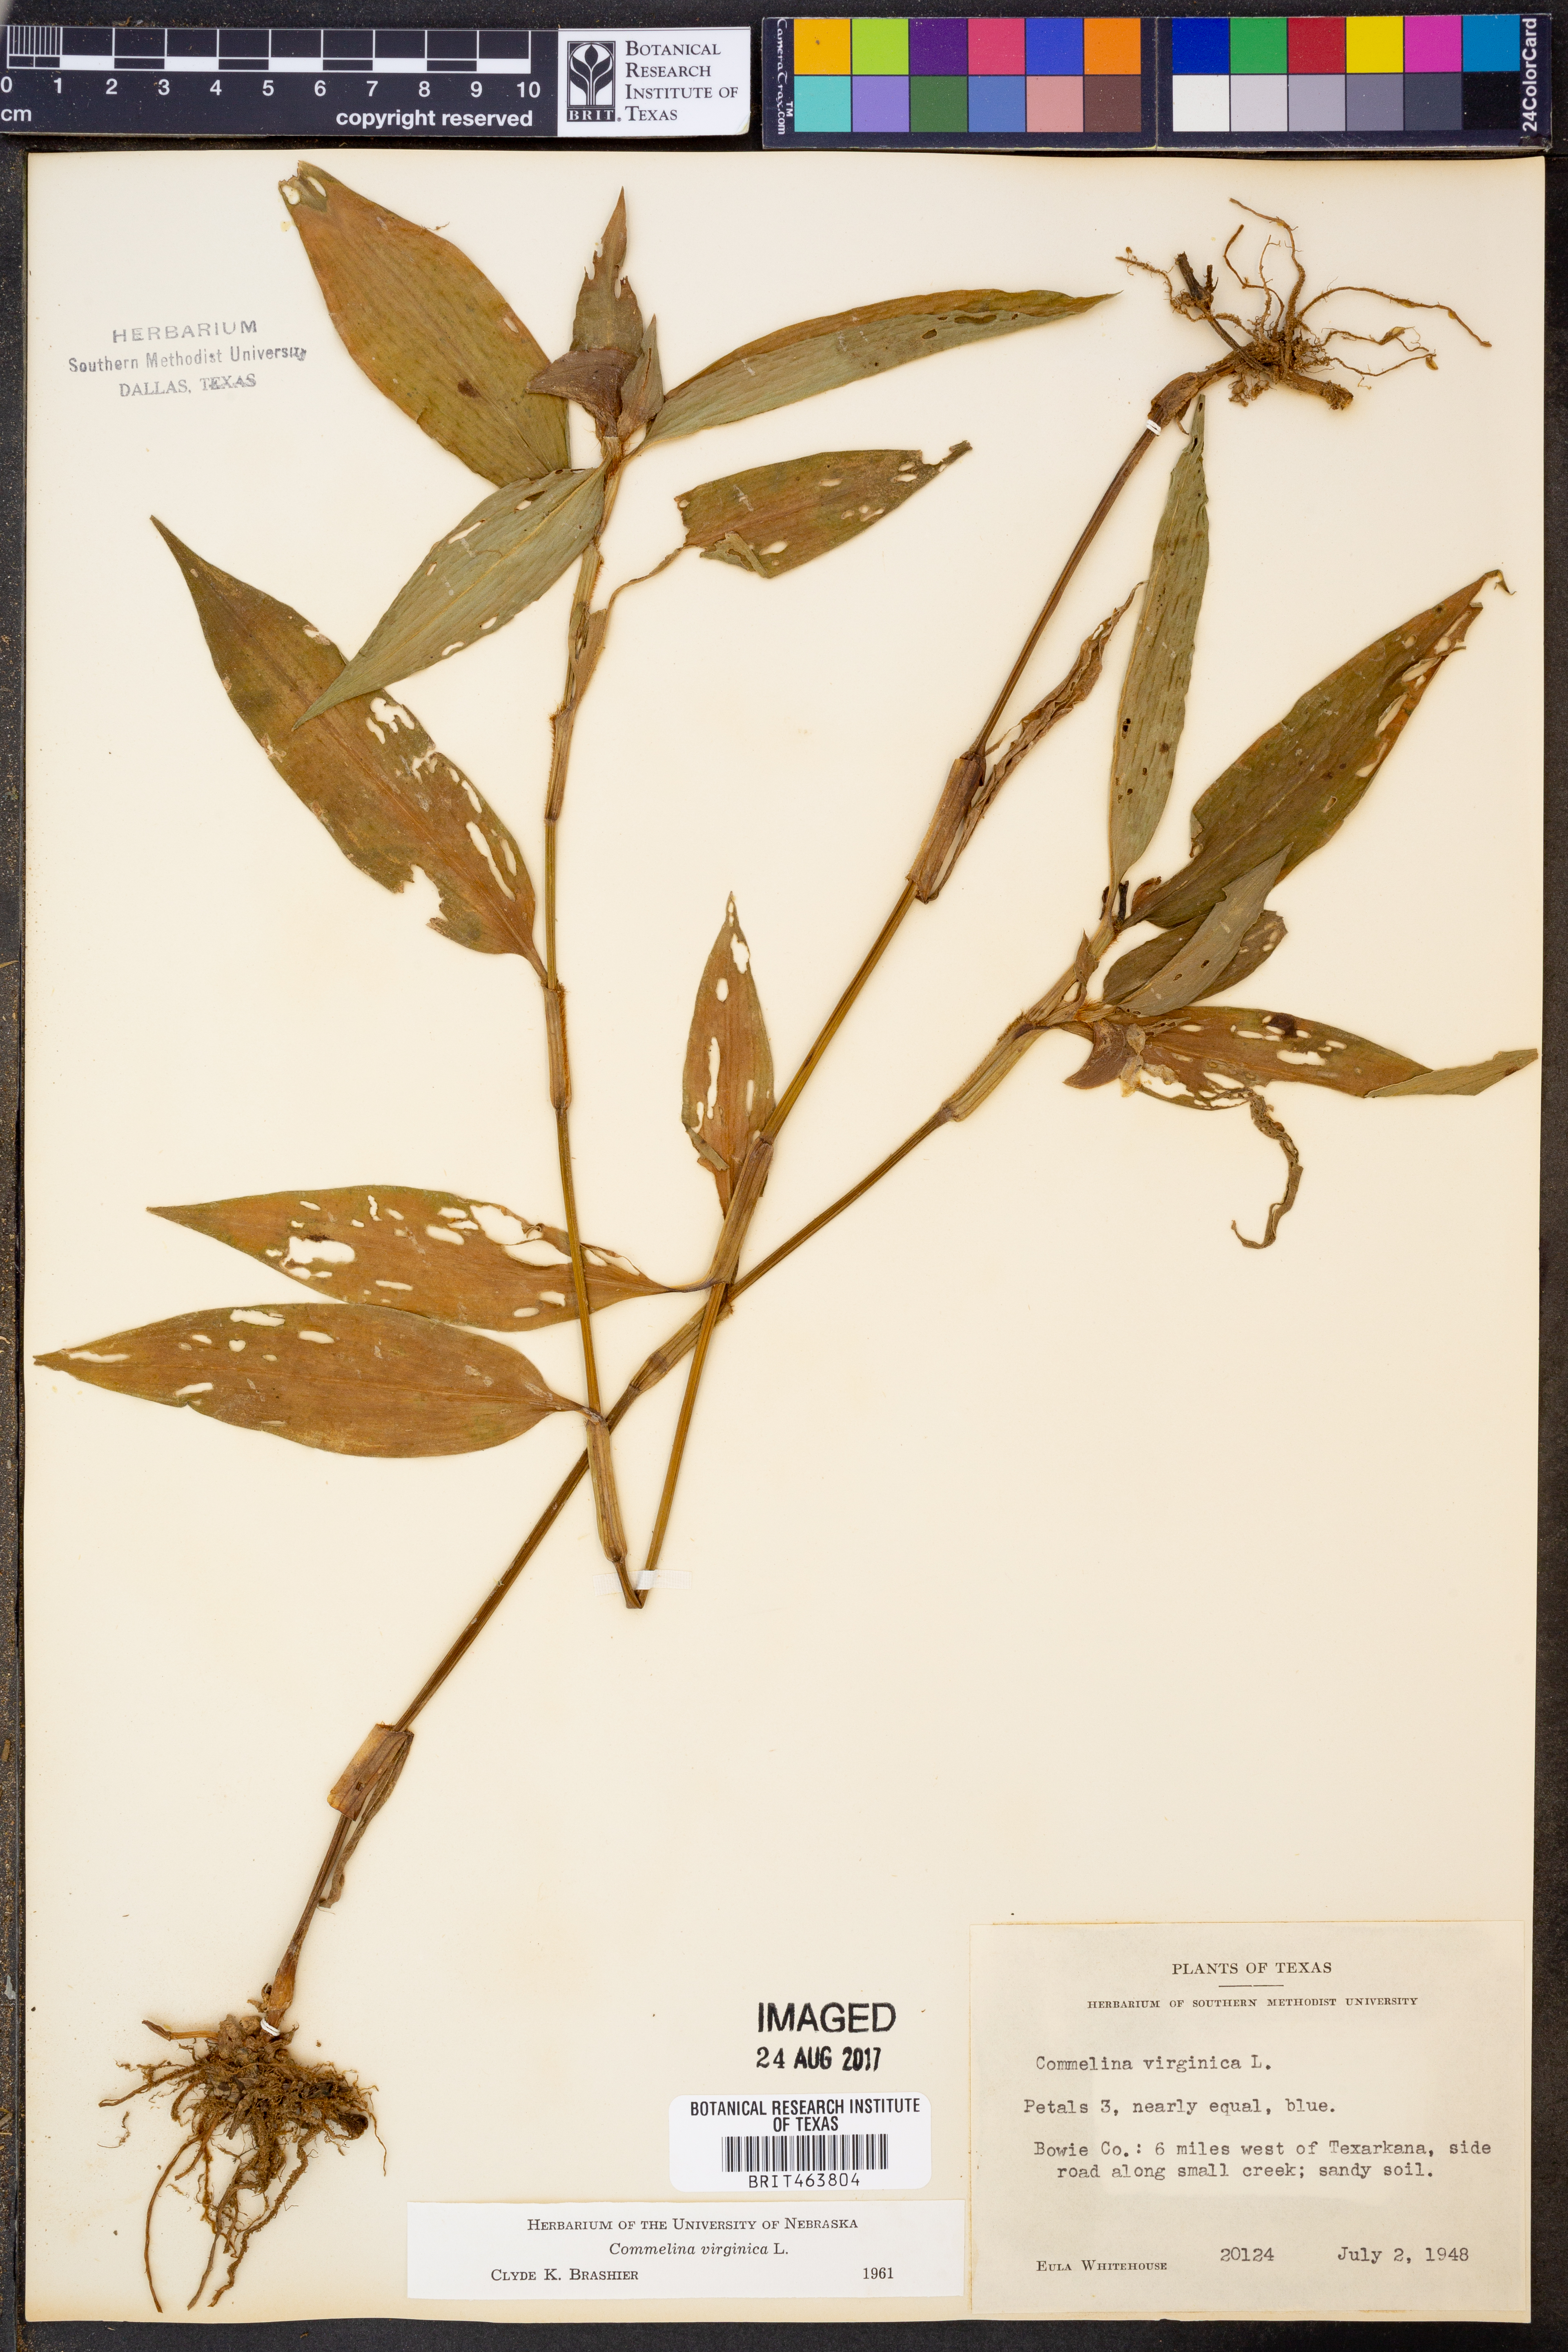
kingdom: Plantae
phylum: Tracheophyta
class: Liliopsida
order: Commelinales
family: Commelinaceae
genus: Commelina
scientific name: Commelina virginica
